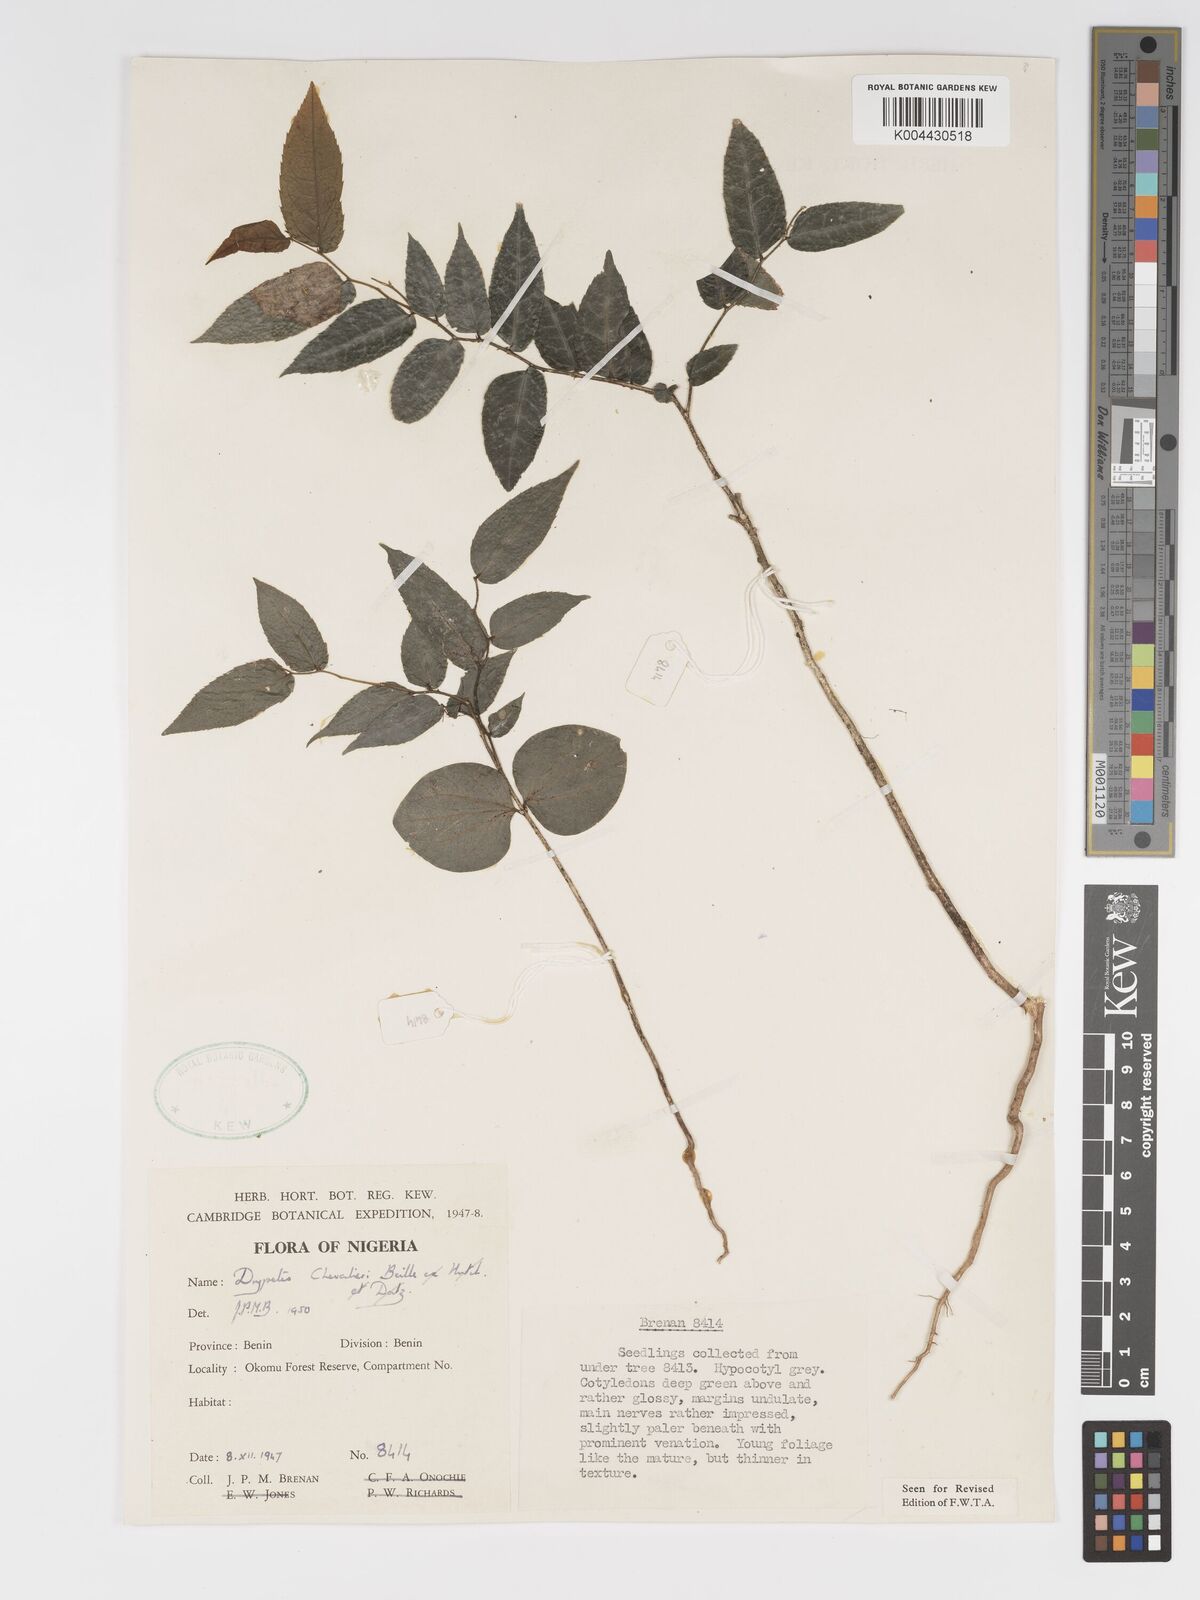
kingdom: Plantae
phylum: Tracheophyta
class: Magnoliopsida
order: Malpighiales
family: Putranjivaceae
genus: Drypetes
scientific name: Drypetes chevalieri
